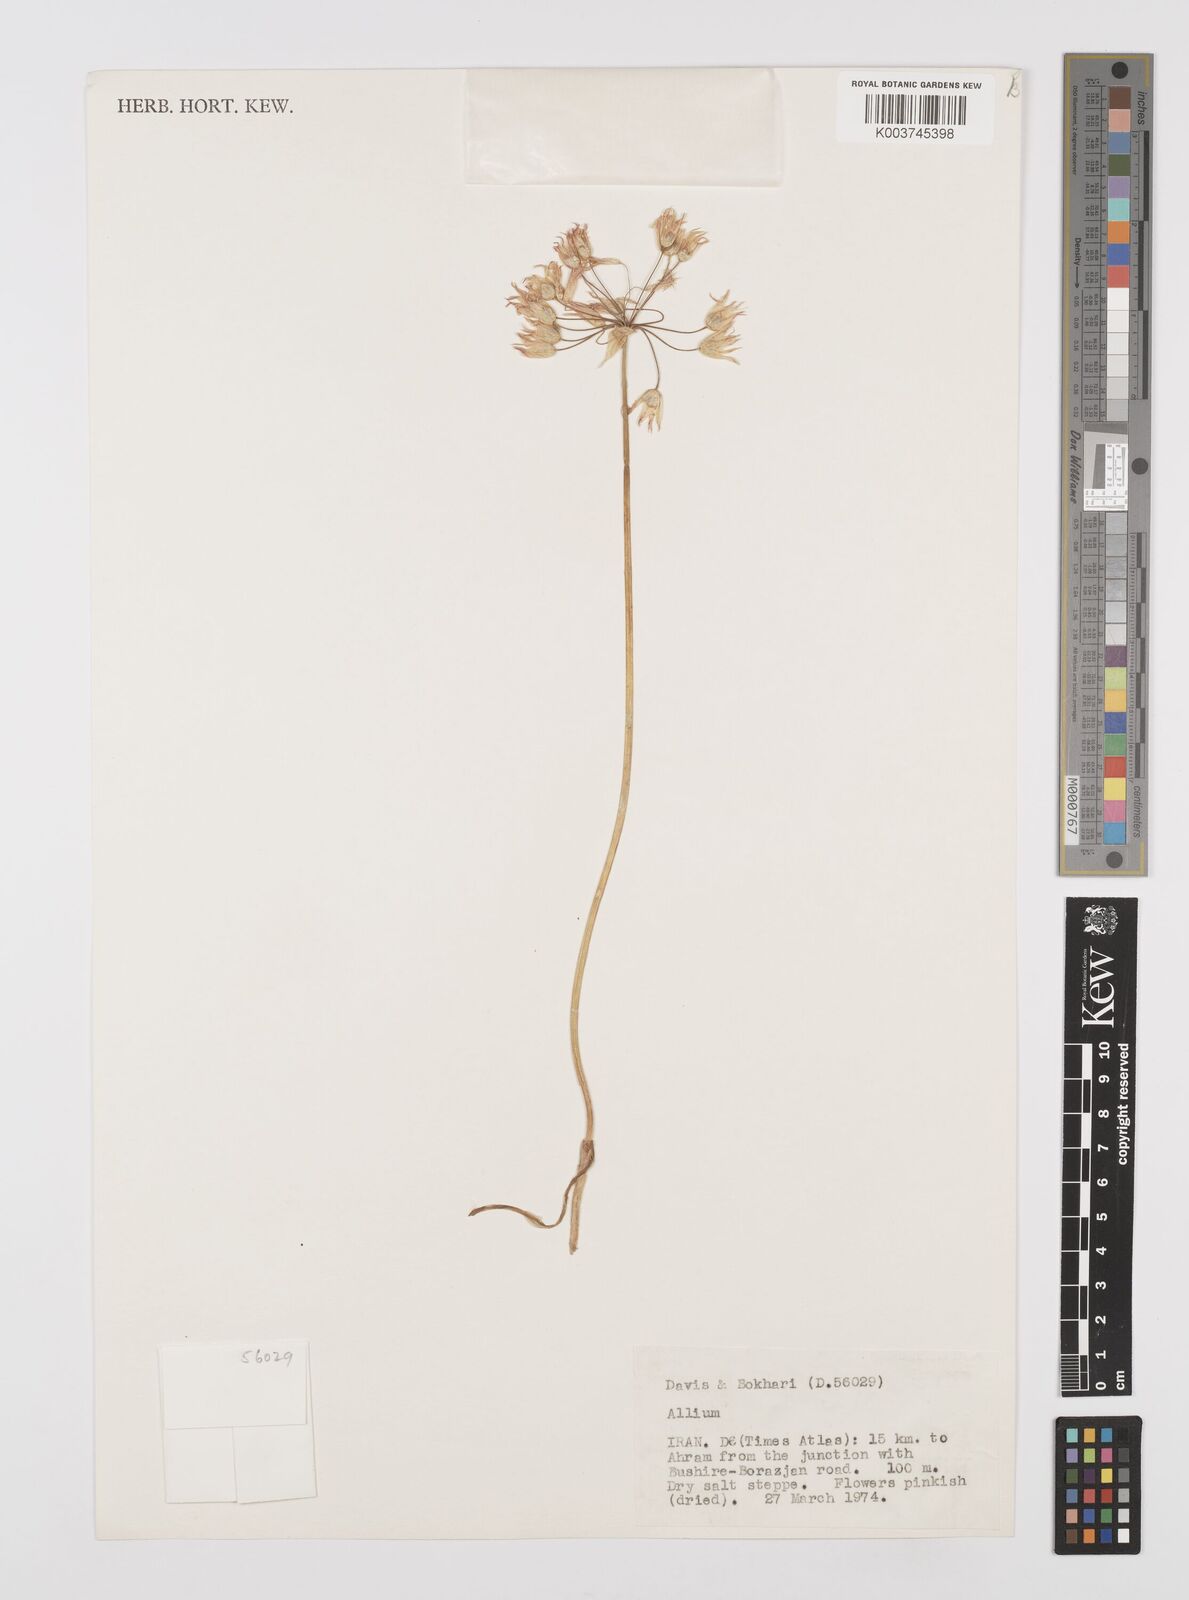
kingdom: Plantae
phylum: Tracheophyta
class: Liliopsida
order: Asparagales
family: Amaryllidaceae
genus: Allium
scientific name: Allium
